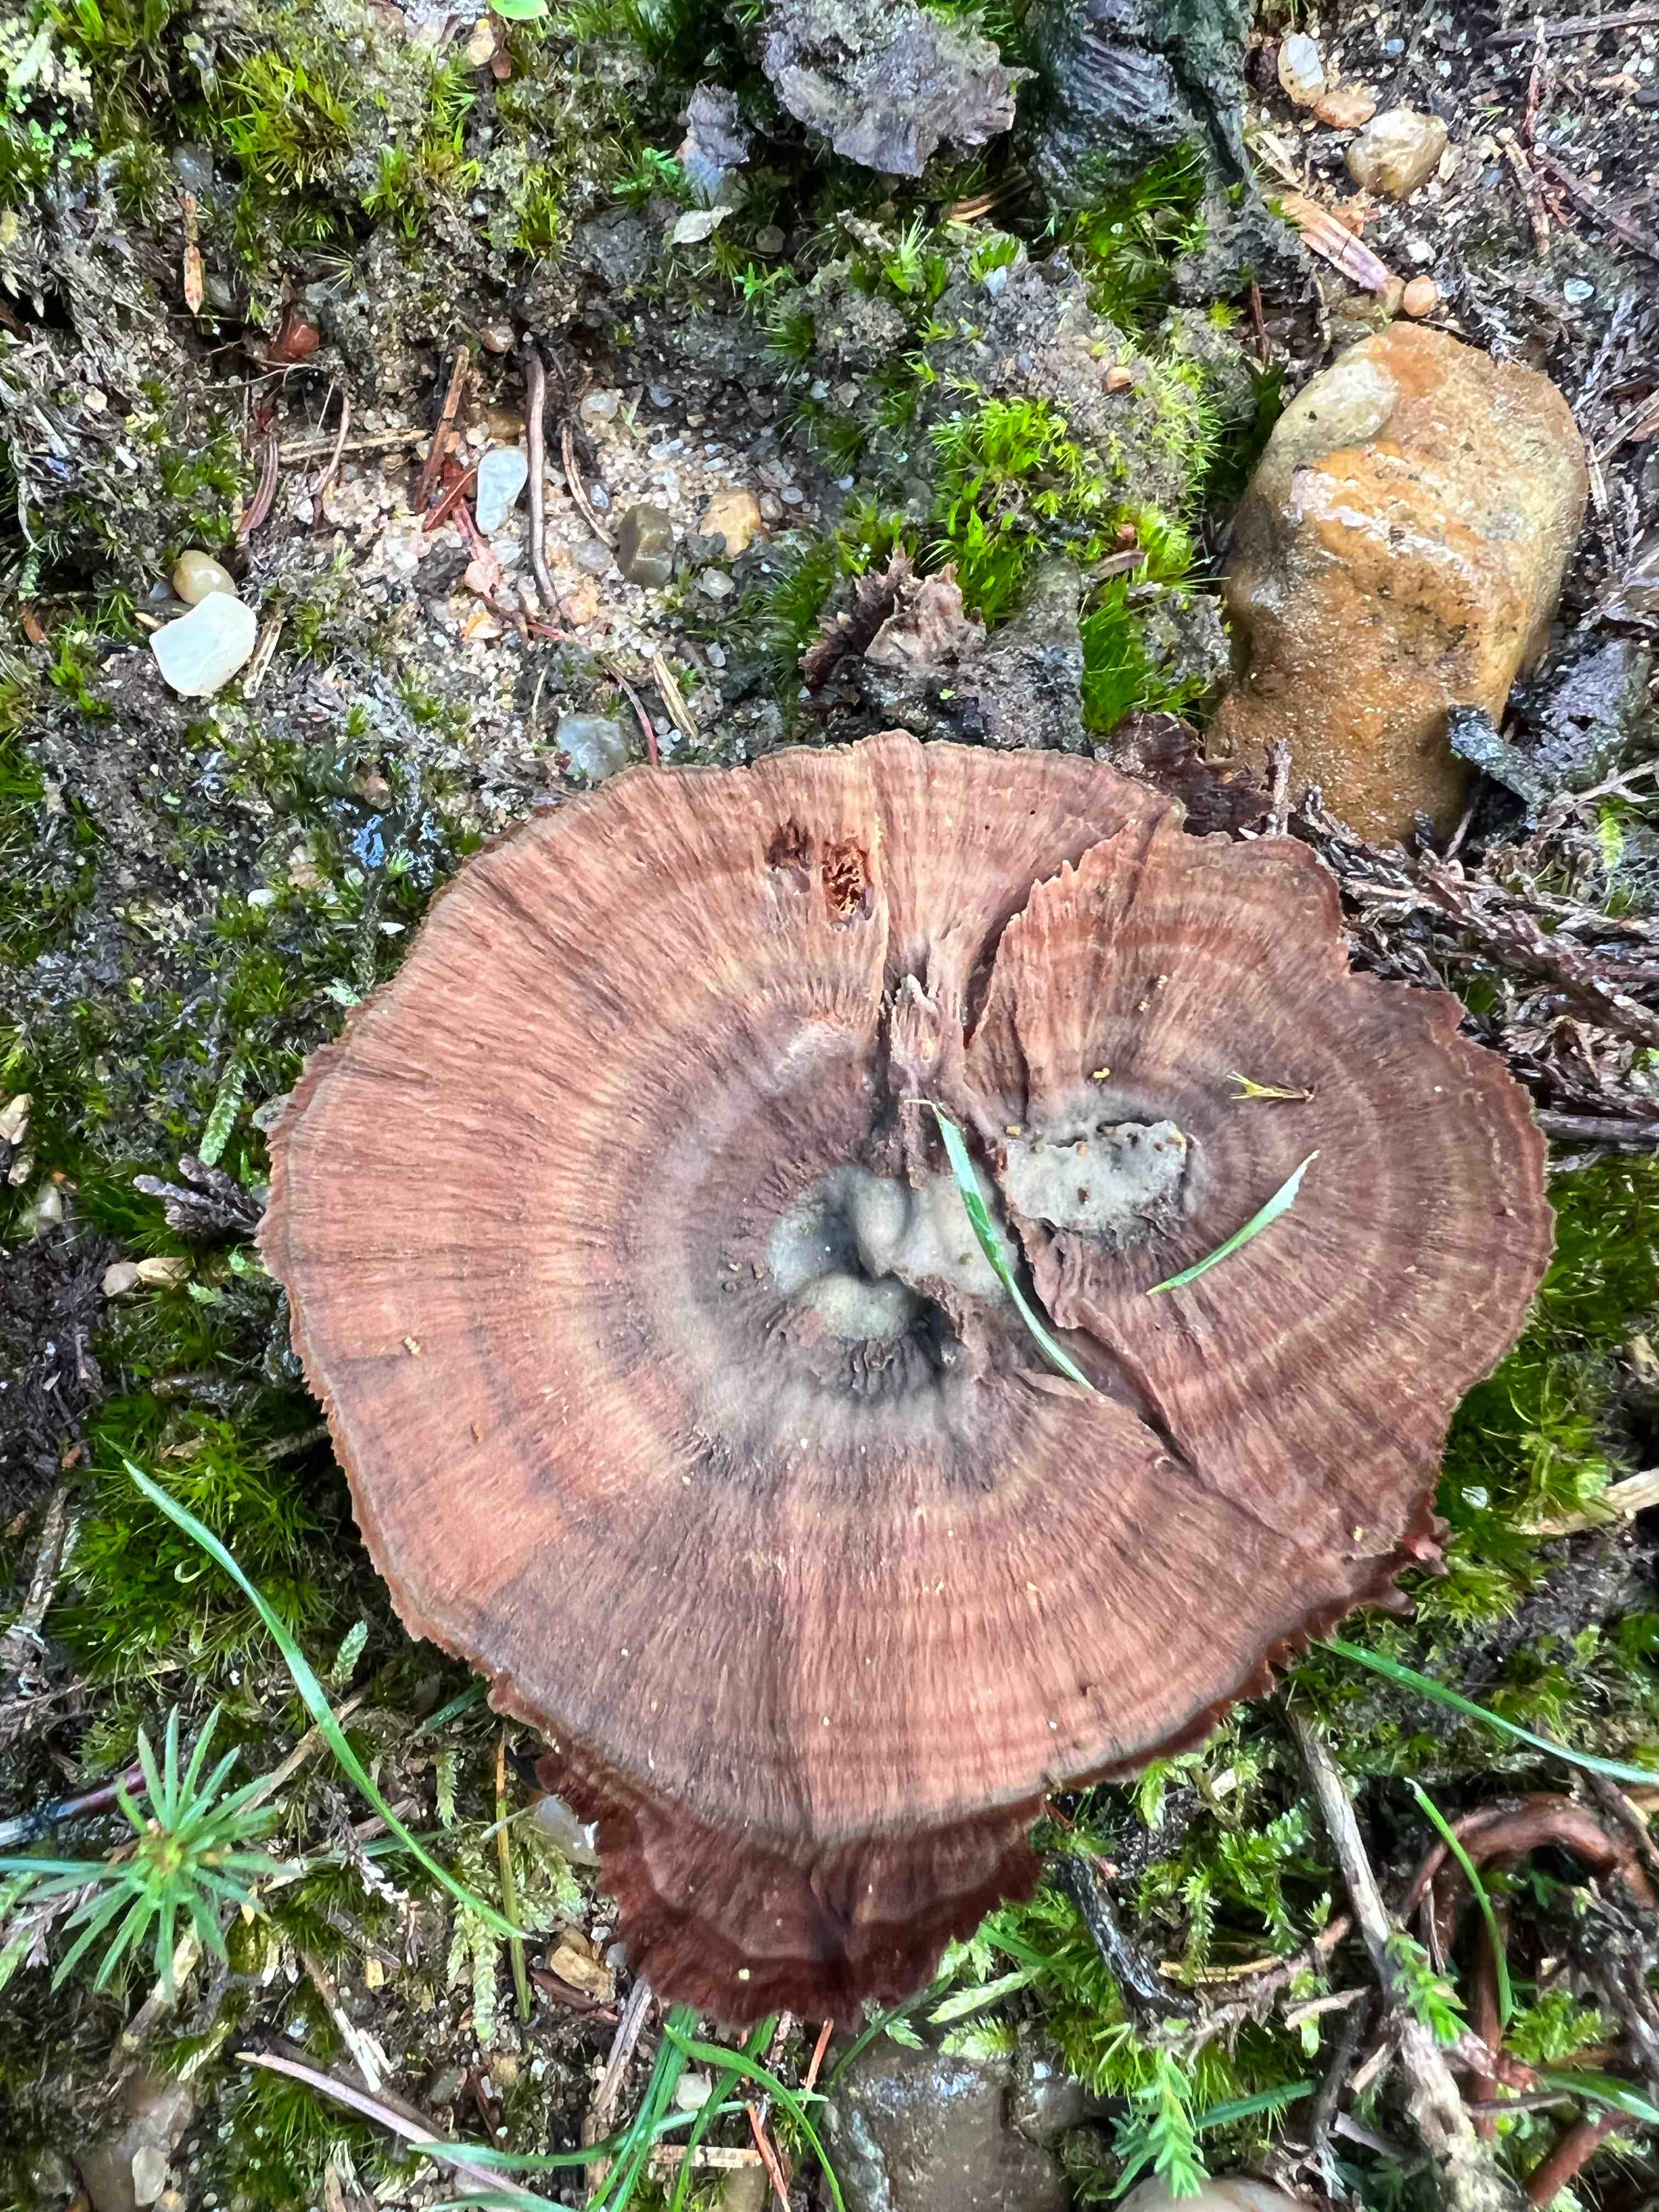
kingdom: Fungi
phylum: Basidiomycota
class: Agaricomycetes
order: Hymenochaetales
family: Hymenochaetaceae
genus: Coltricia
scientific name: Coltricia perennis
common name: almindelig sandporesvamp
